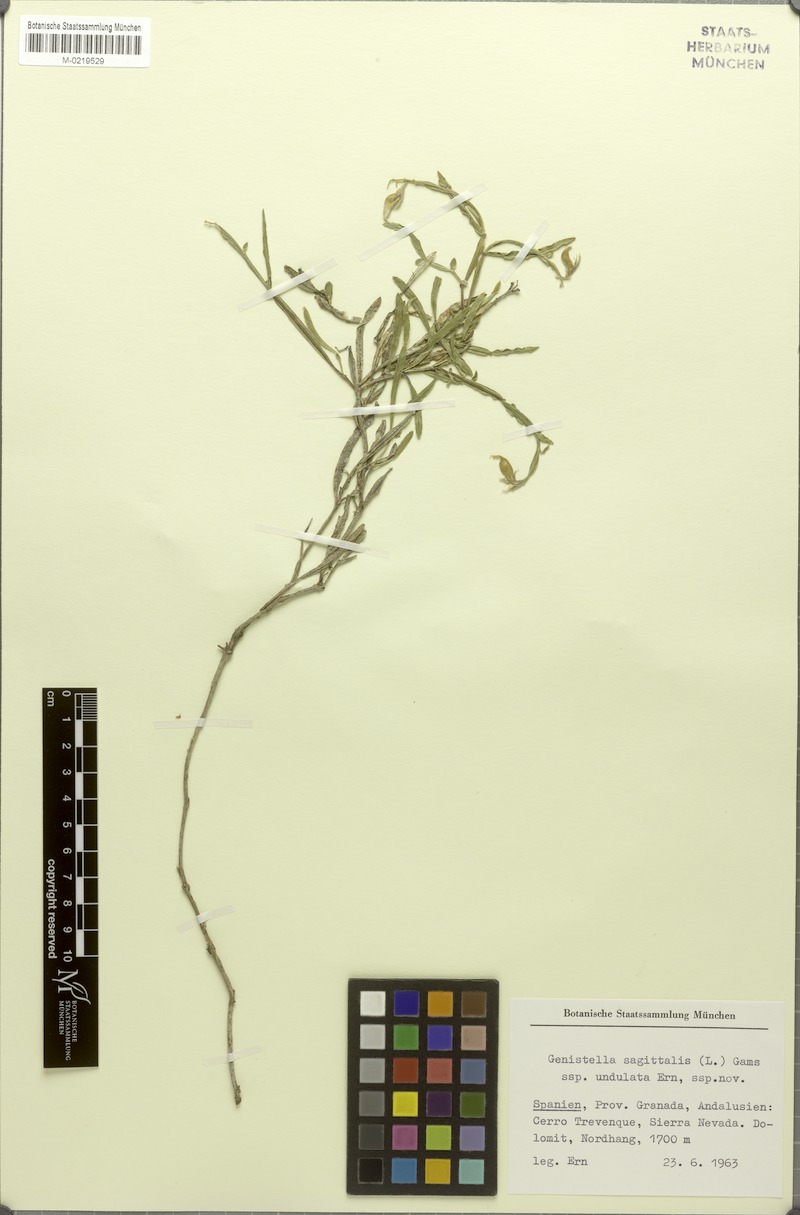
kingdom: Plantae
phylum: Tracheophyta
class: Magnoliopsida
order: Fabales
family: Fabaceae
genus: Genista
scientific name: Genista sagittalis
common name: Winged greenweed
